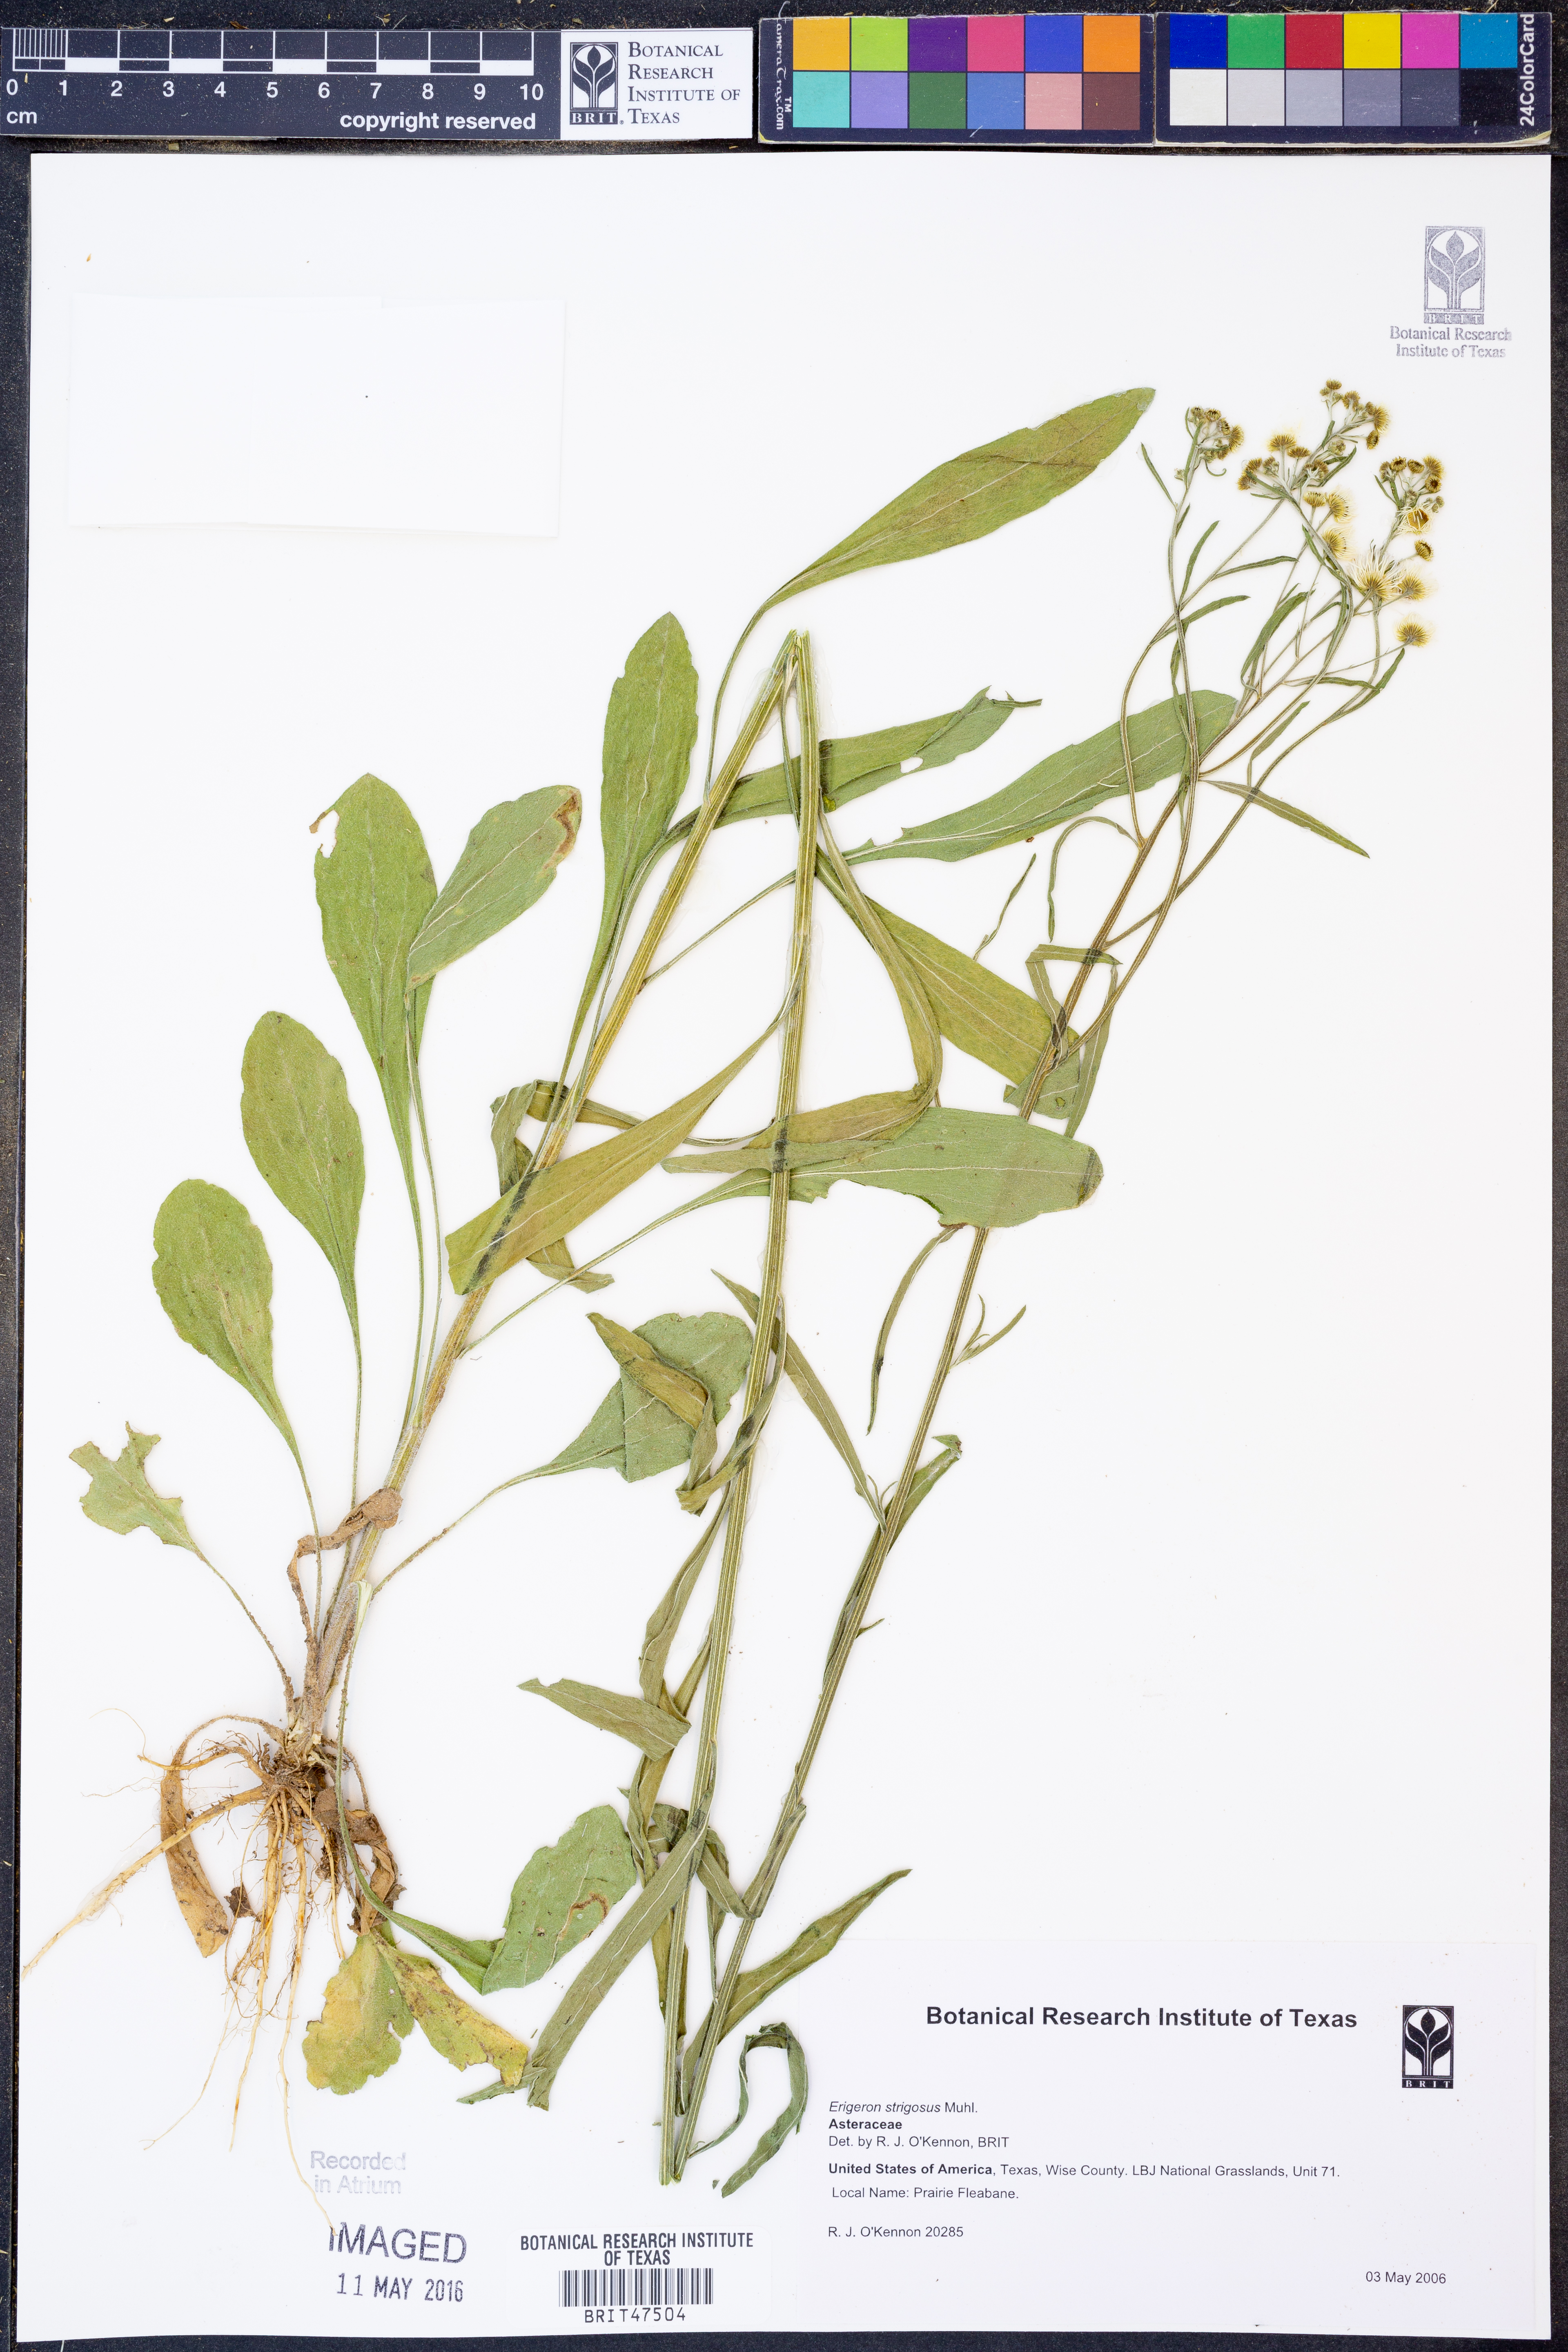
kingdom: Plantae
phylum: Tracheophyta
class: Magnoliopsida
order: Asterales
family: Asteraceae
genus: Erigeron
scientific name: Erigeron strigosus
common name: Common eastern fleabane
